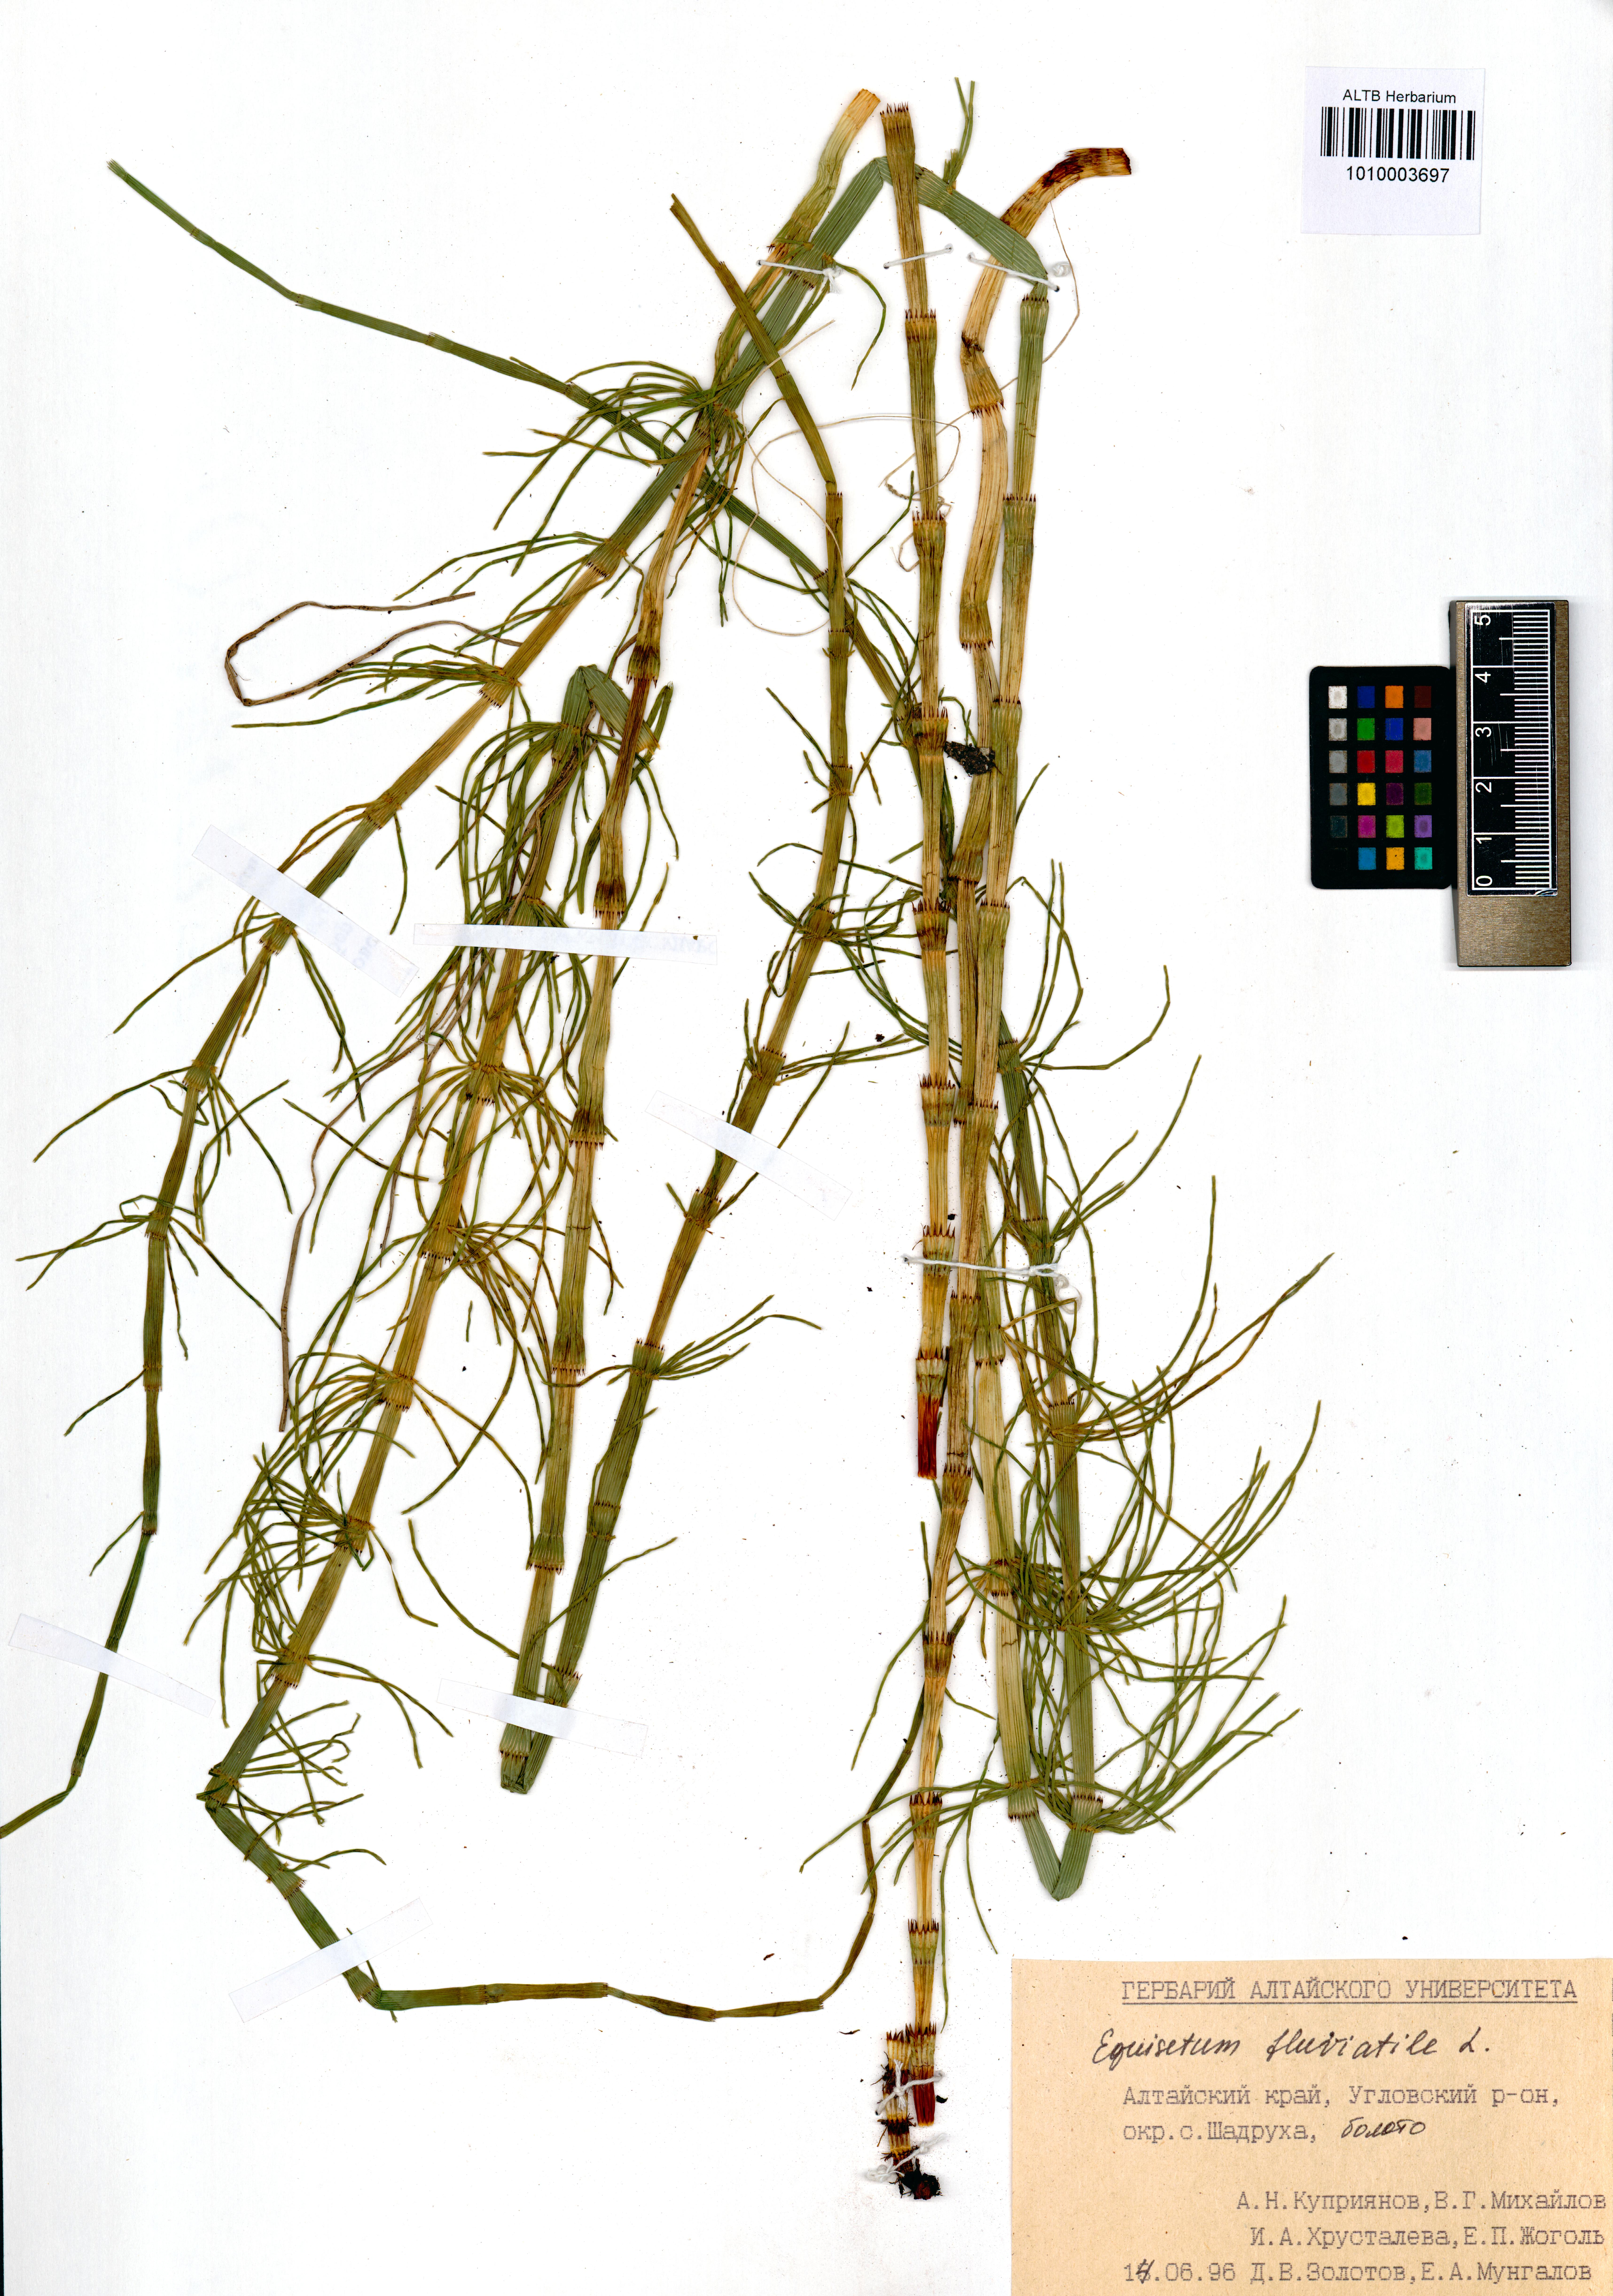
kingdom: Plantae
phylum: Tracheophyta
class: Polypodiopsida
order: Equisetales
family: Equisetaceae
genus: Equisetum
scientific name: Equisetum fluviatile
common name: Water horsetail
